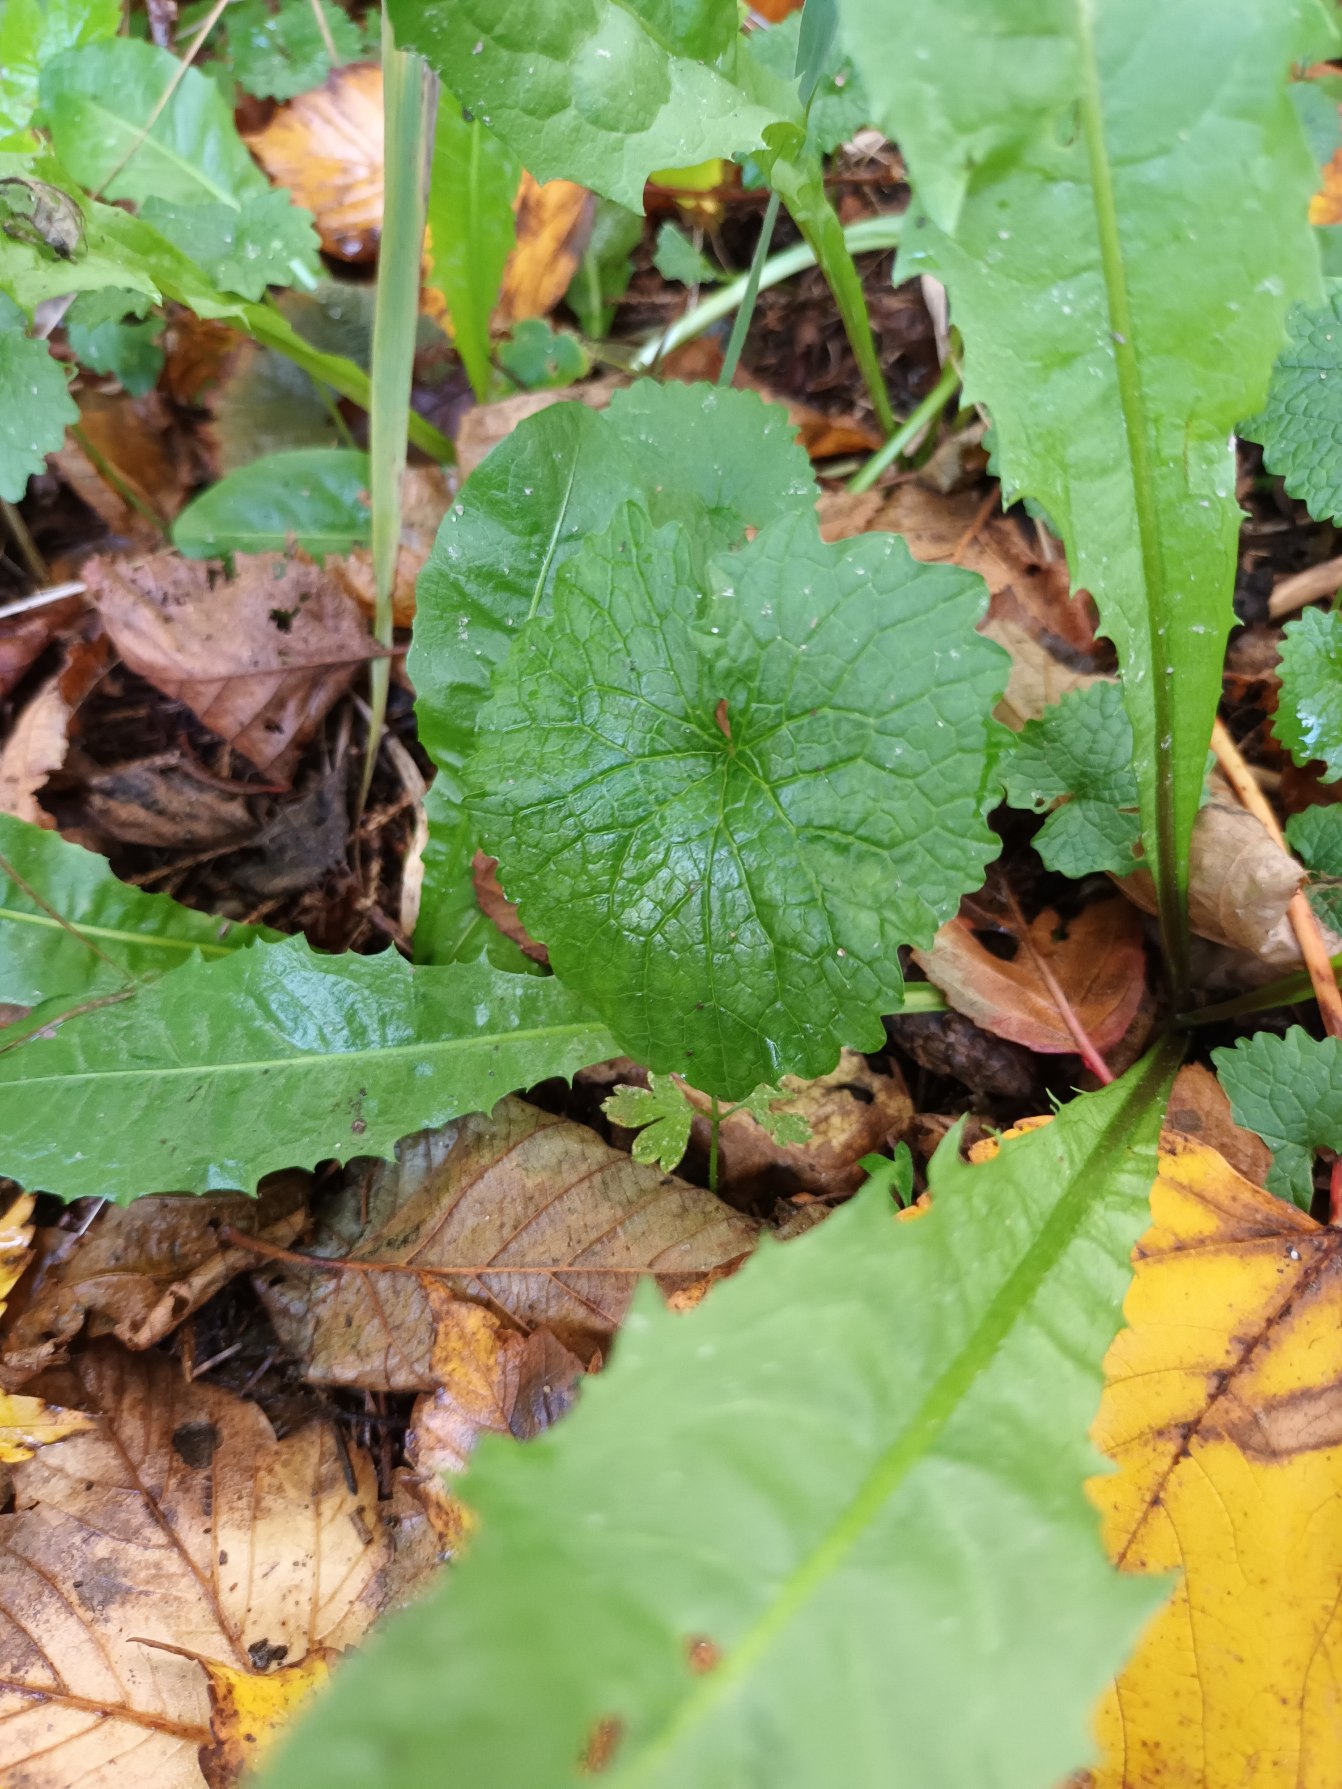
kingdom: Plantae
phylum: Tracheophyta
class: Magnoliopsida
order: Brassicales
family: Brassicaceae
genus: Alliaria
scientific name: Alliaria petiolata
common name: Løgkarse
